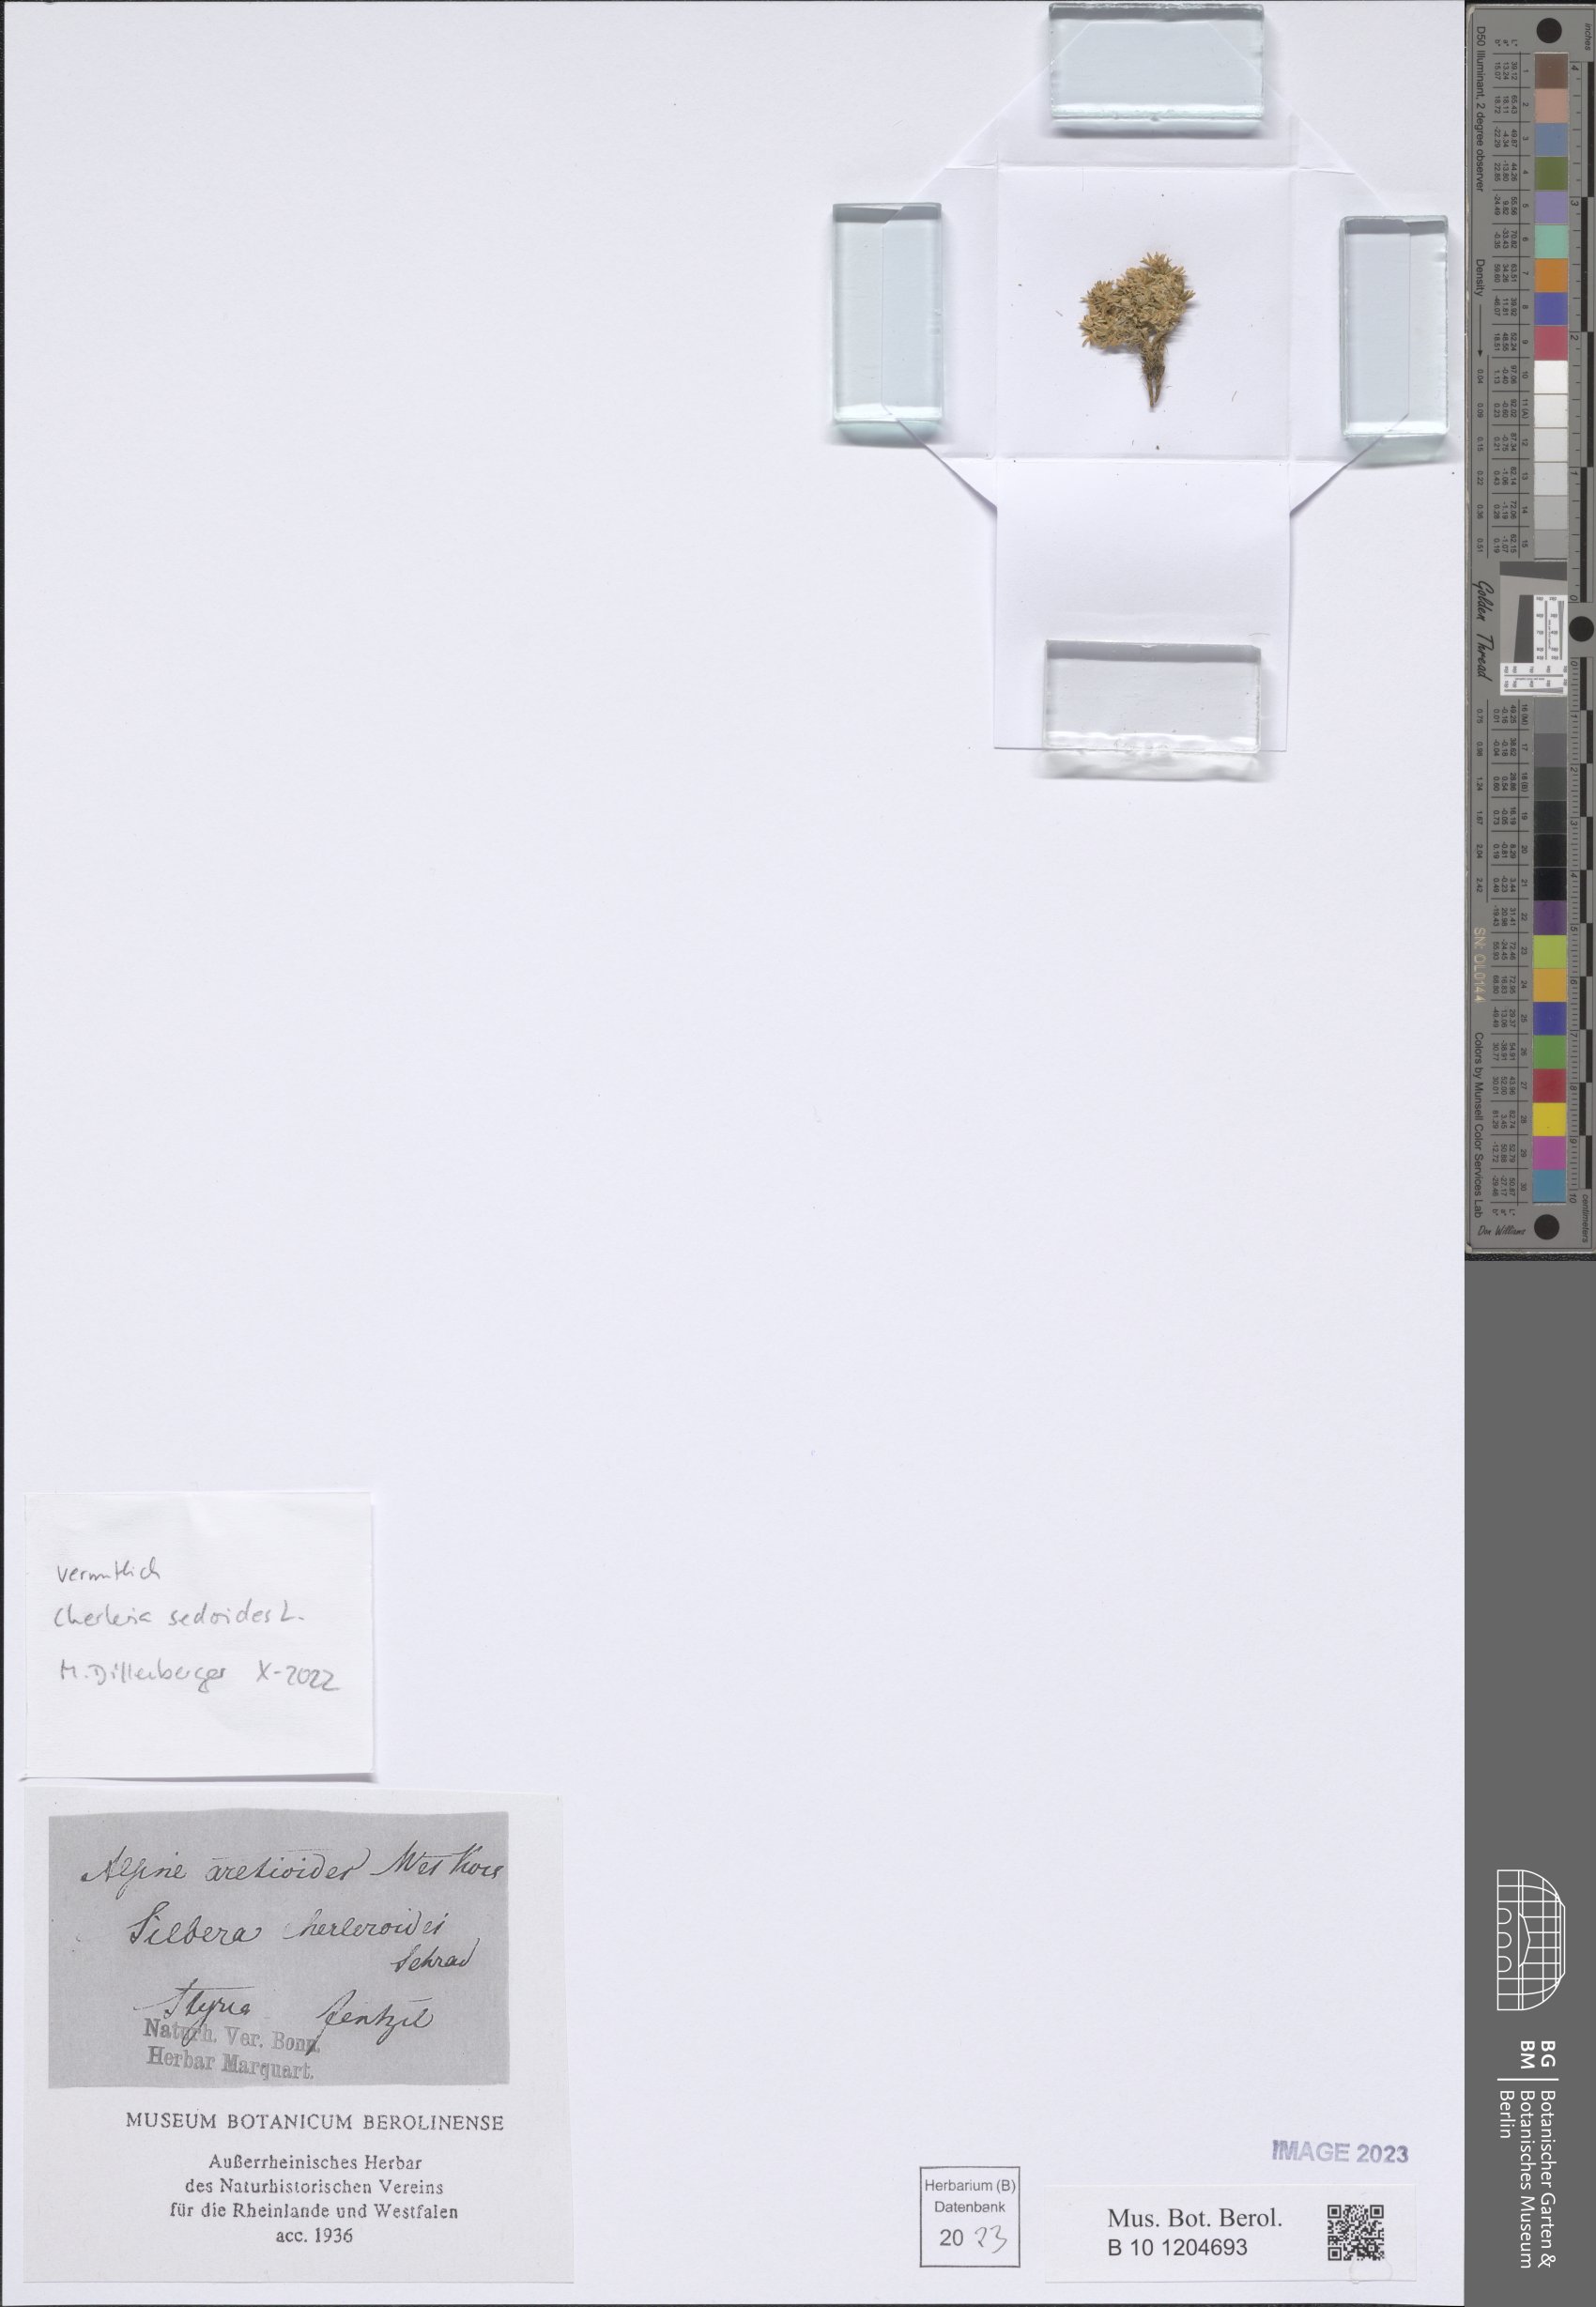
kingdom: Plantae
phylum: Tracheophyta
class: Magnoliopsida
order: Caryophyllales
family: Caryophyllaceae
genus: Cherleria
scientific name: Cherleria sedoides
